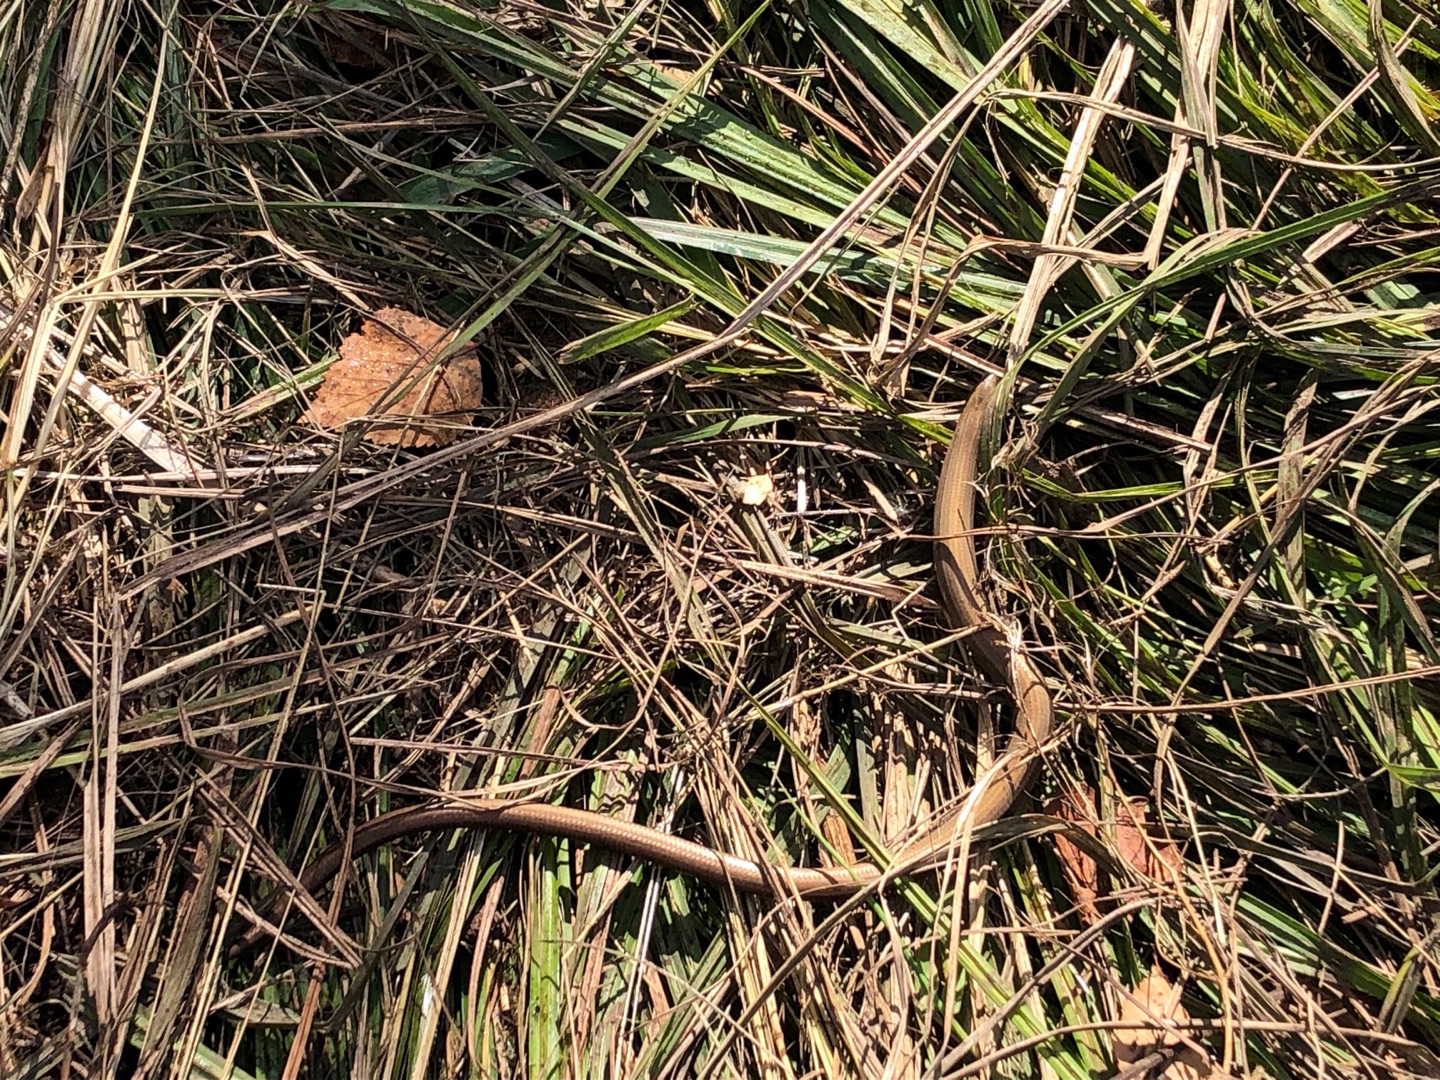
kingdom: Animalia
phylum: Chordata
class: Squamata
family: Anguidae
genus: Anguis
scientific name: Anguis fragilis
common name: Stålorm
